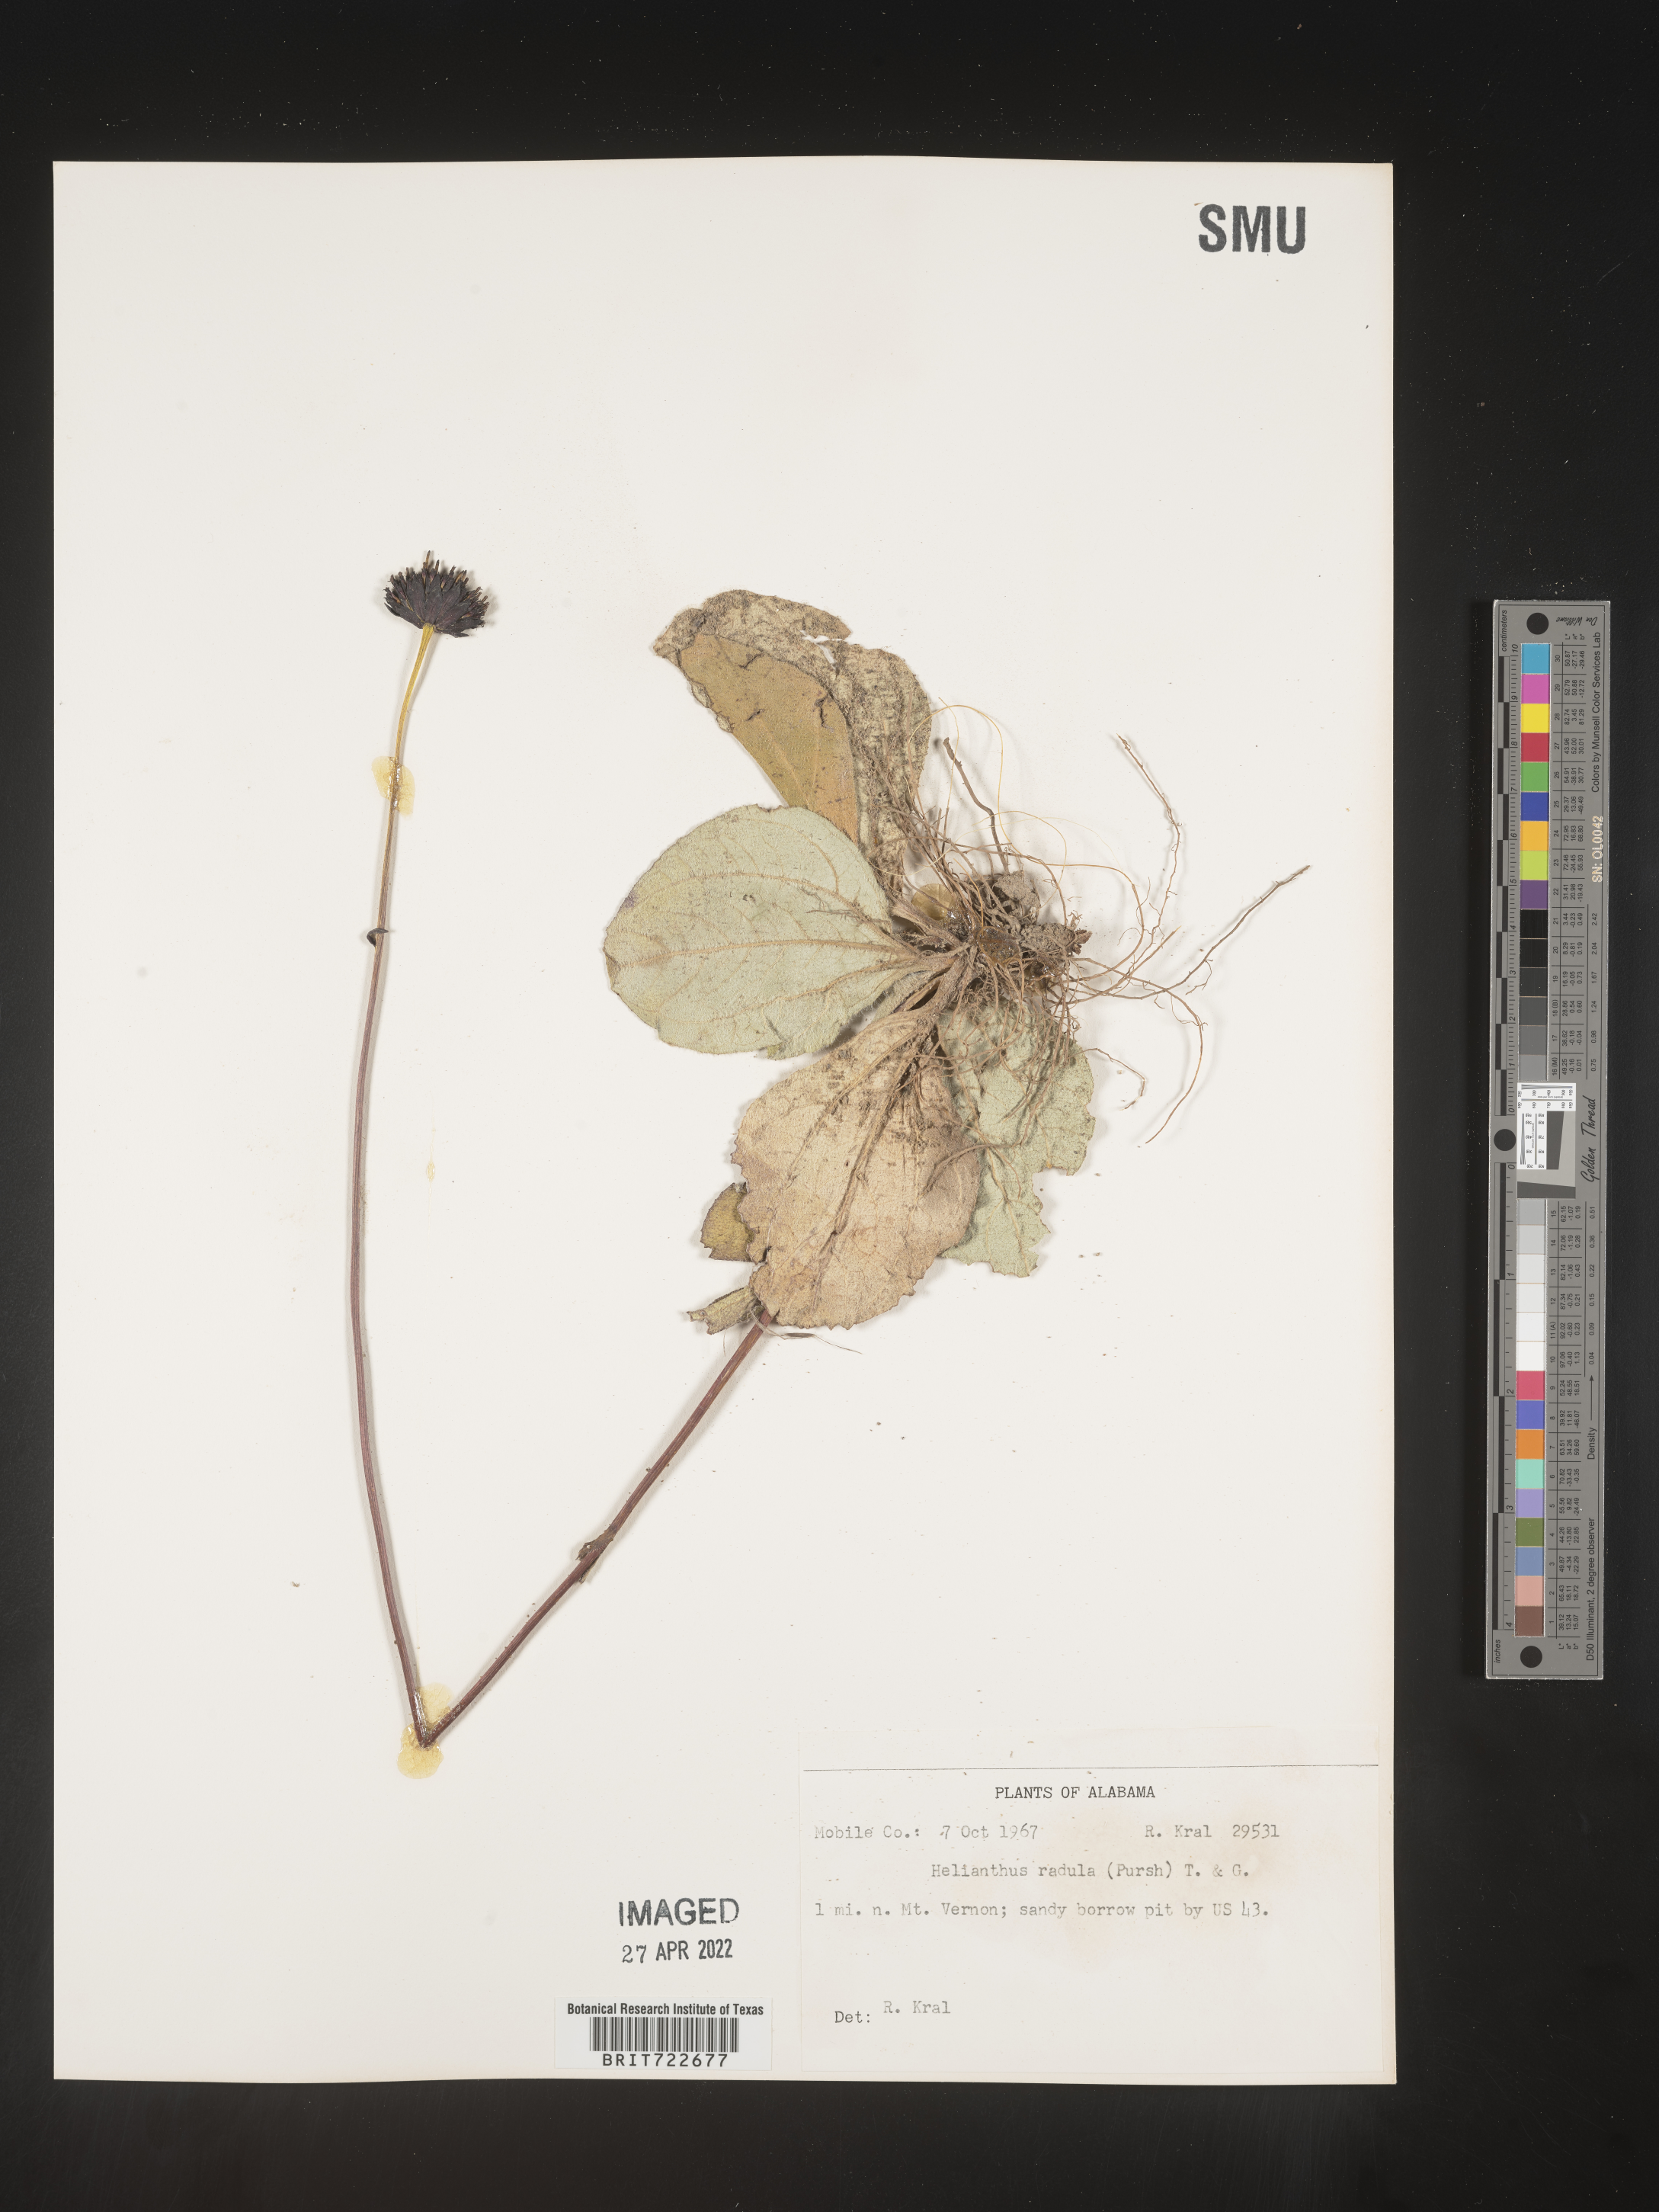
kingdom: Plantae
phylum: Tracheophyta
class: Magnoliopsida
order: Asterales
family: Asteraceae
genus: Helianthus
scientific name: Helianthus radula
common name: Pineland sunflower
